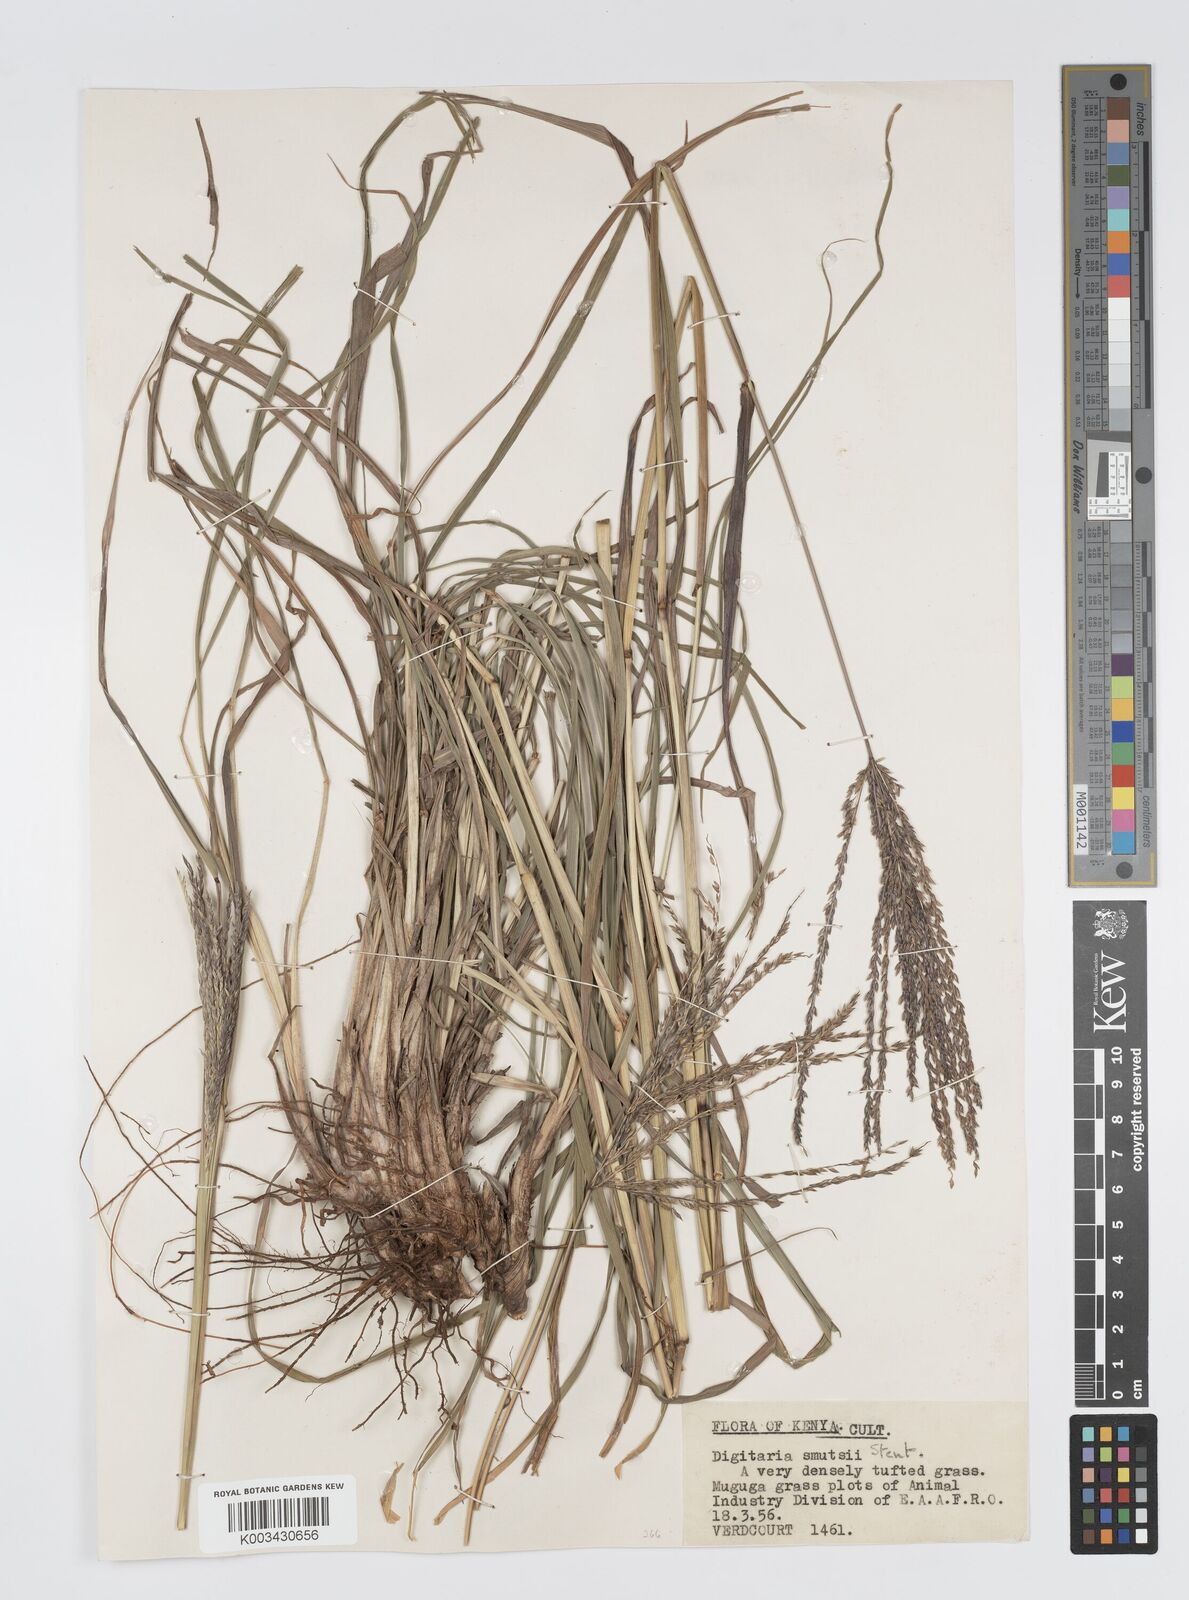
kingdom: Plantae
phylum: Tracheophyta
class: Liliopsida
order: Poales
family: Poaceae
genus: Digitaria
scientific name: Digitaria eriantha
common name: Digitgrass
